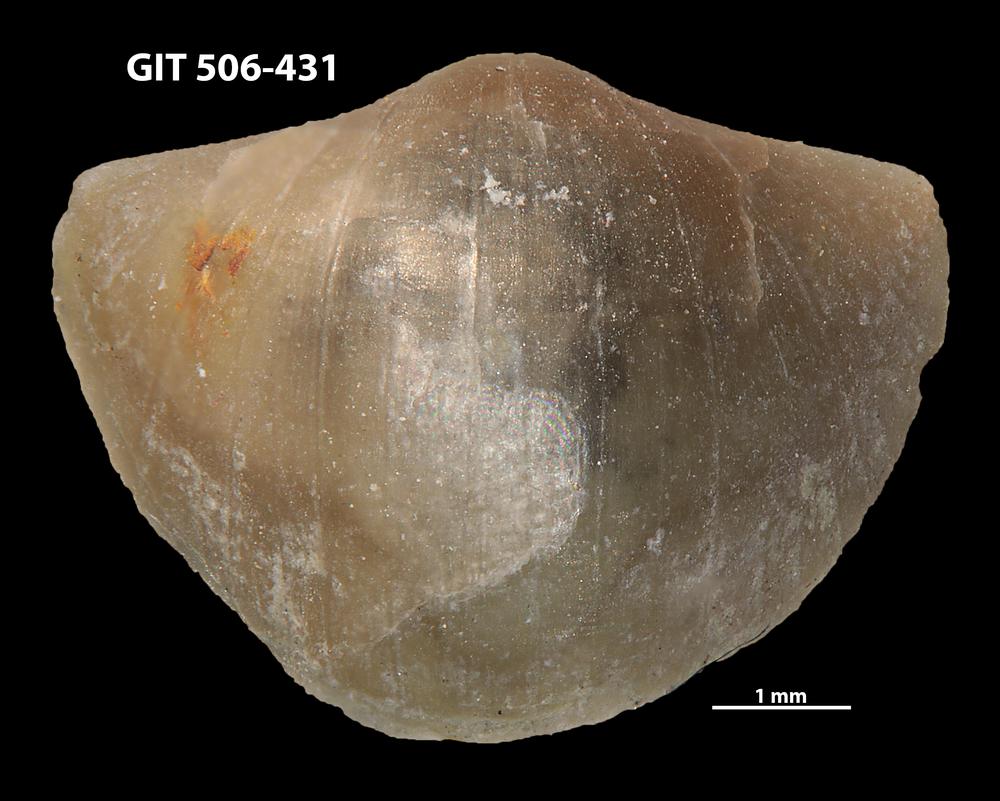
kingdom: Animalia
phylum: Brachiopoda
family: Leptellinidae
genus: Leangella
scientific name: Leangella Plectambonites scissa
